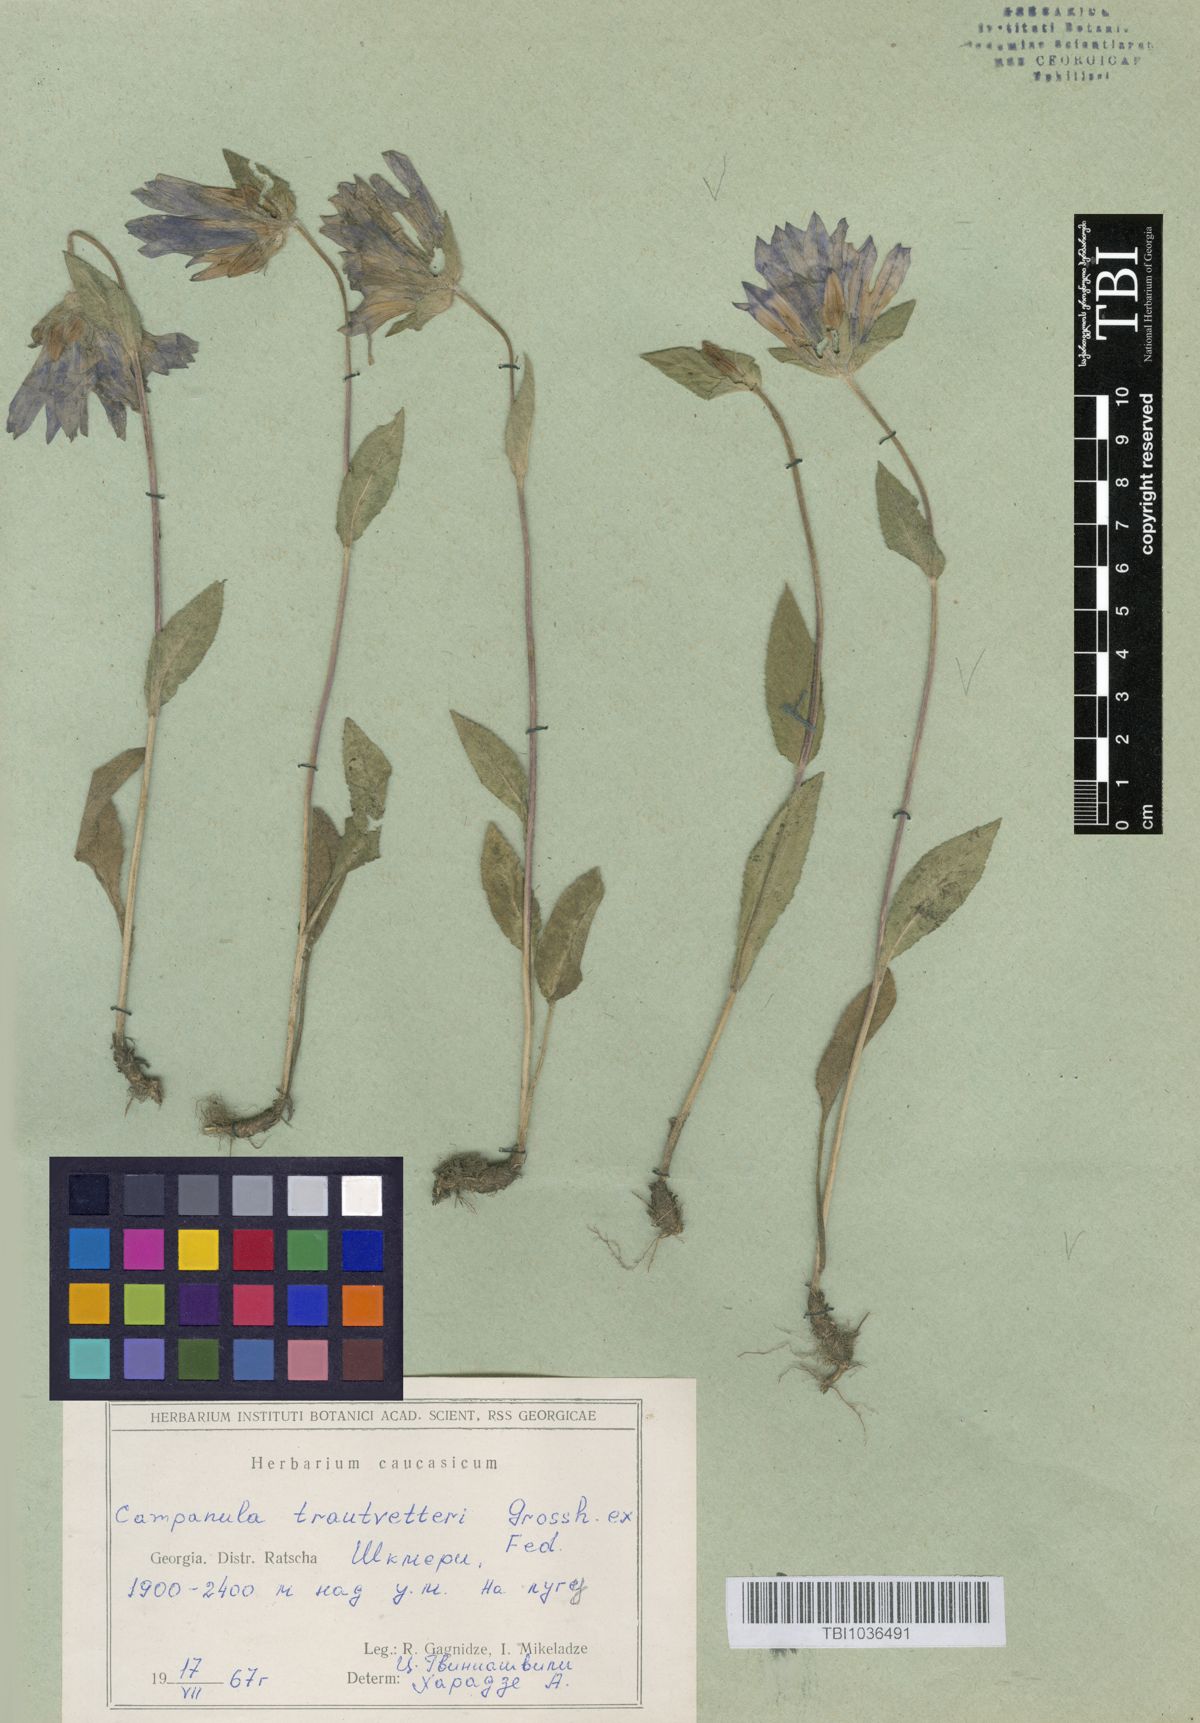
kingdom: Plantae
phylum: Tracheophyta
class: Magnoliopsida
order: Asterales
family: Campanulaceae
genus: Campanula
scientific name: Campanula glomerata
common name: Clustered bellflower
